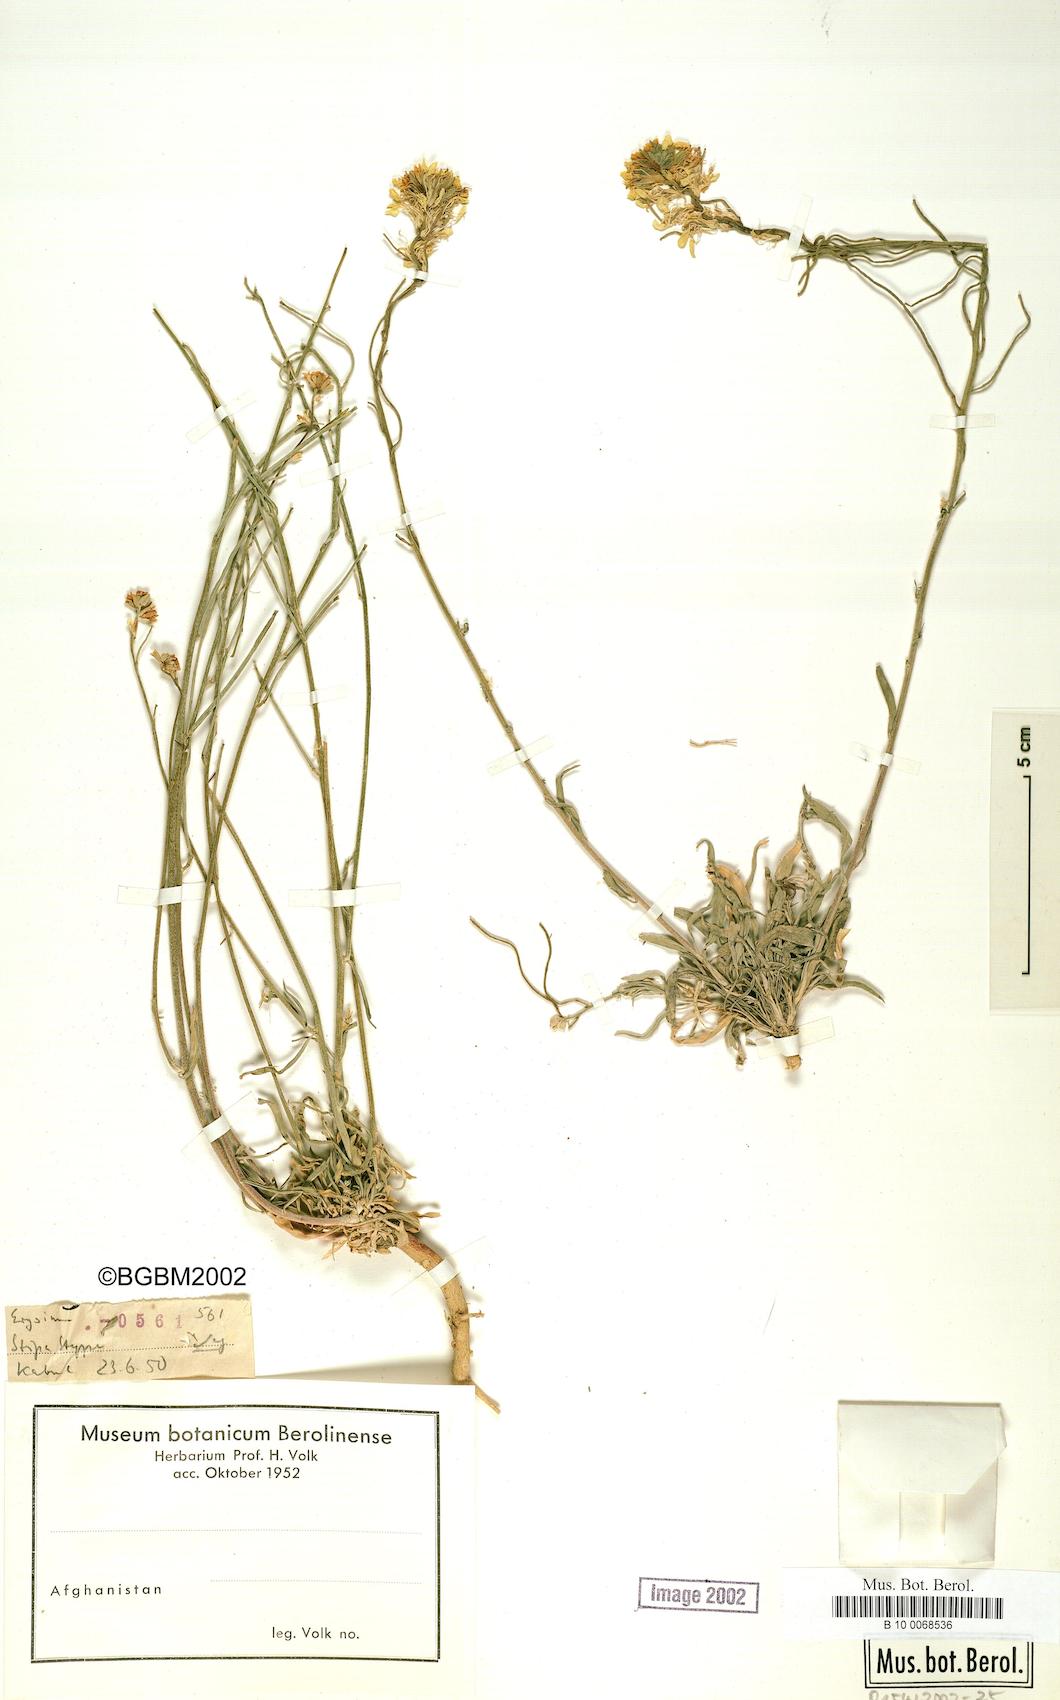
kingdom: Plantae
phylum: Tracheophyta
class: Magnoliopsida
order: Brassicales
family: Brassicaceae
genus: Erysimum
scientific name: Erysimum ghaznicum
